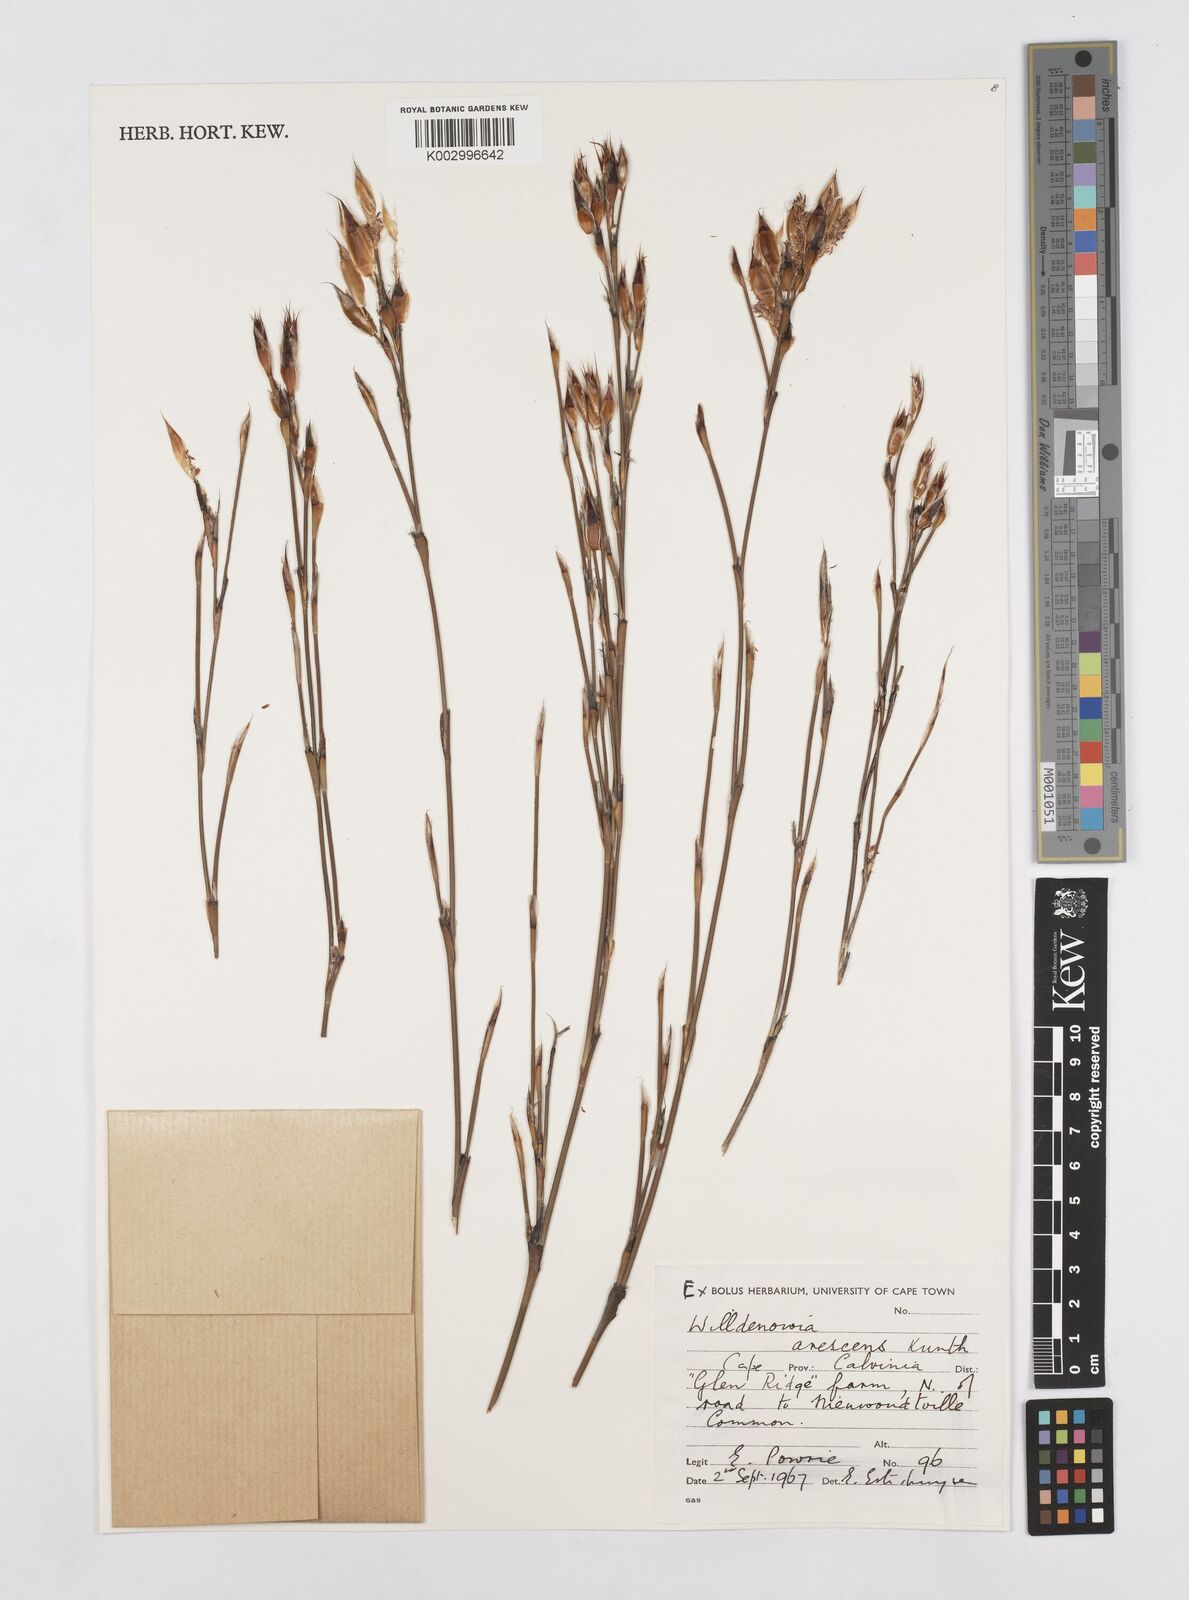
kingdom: Plantae
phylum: Tracheophyta
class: Liliopsida
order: Poales
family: Restionaceae
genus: Willdenowia
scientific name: Willdenowia arescens
